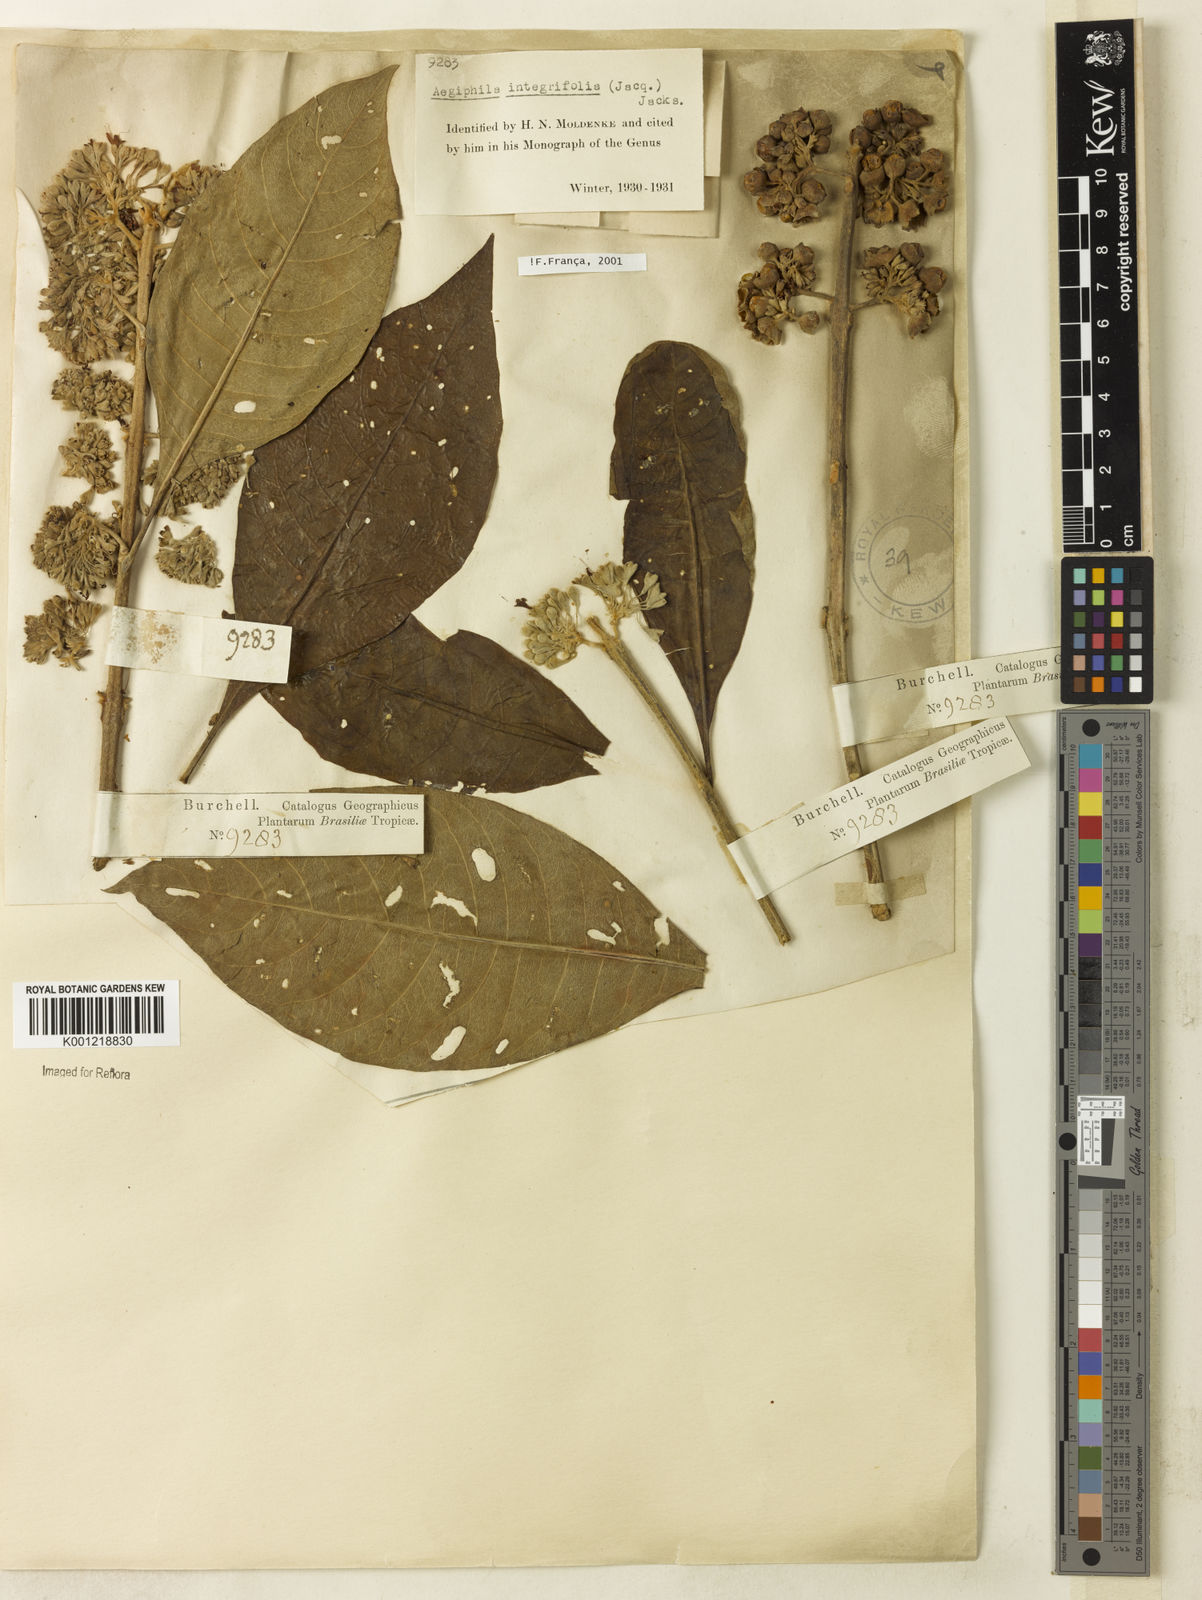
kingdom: Plantae
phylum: Tracheophyta
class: Magnoliopsida
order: Lamiales
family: Lamiaceae
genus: Aegiphila
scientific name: Aegiphila
